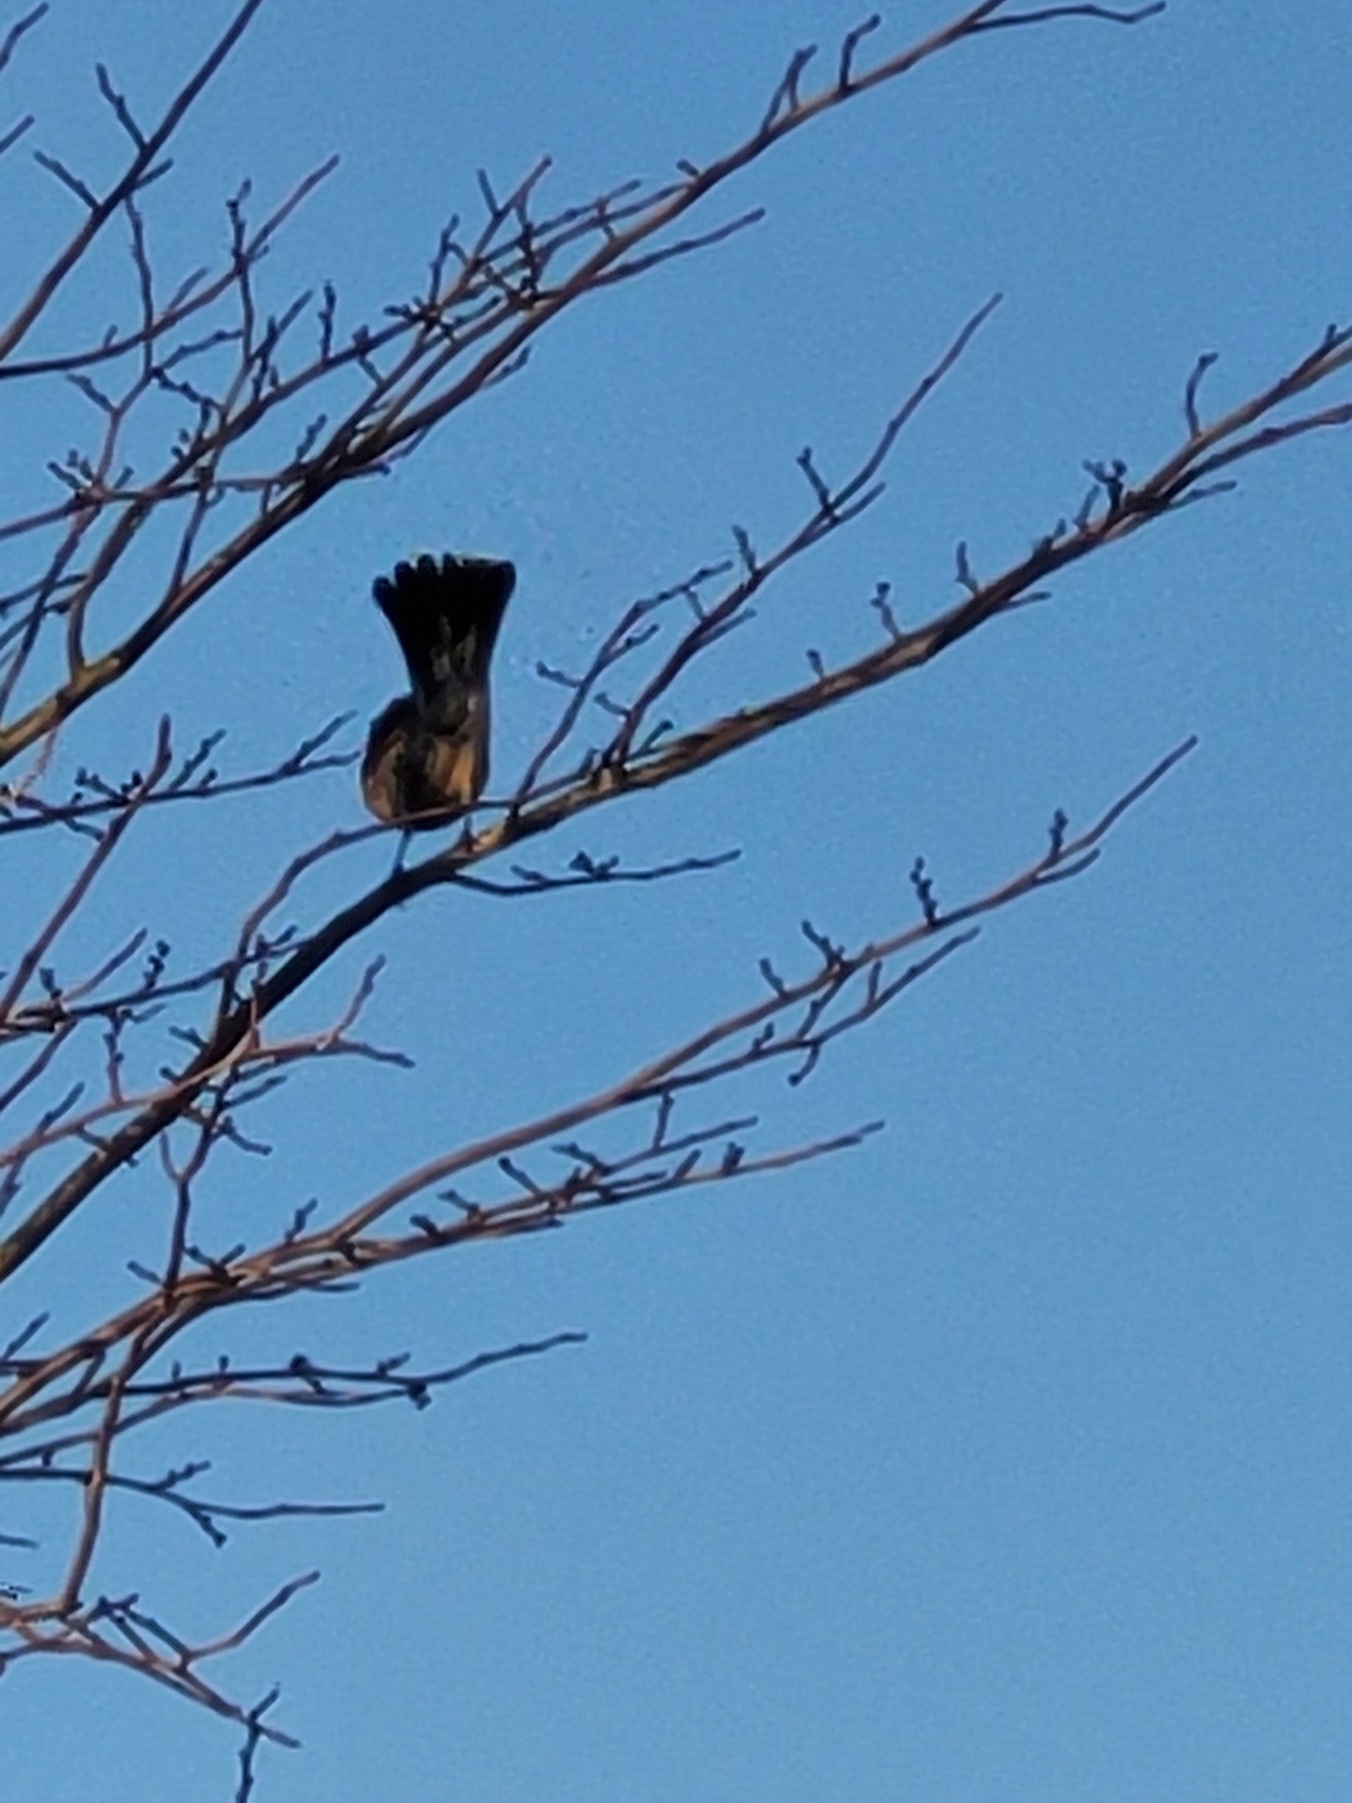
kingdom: Animalia
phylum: Chordata
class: Aves
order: Passeriformes
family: Turdidae
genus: Turdus
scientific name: Turdus pilaris
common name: Sjagger
